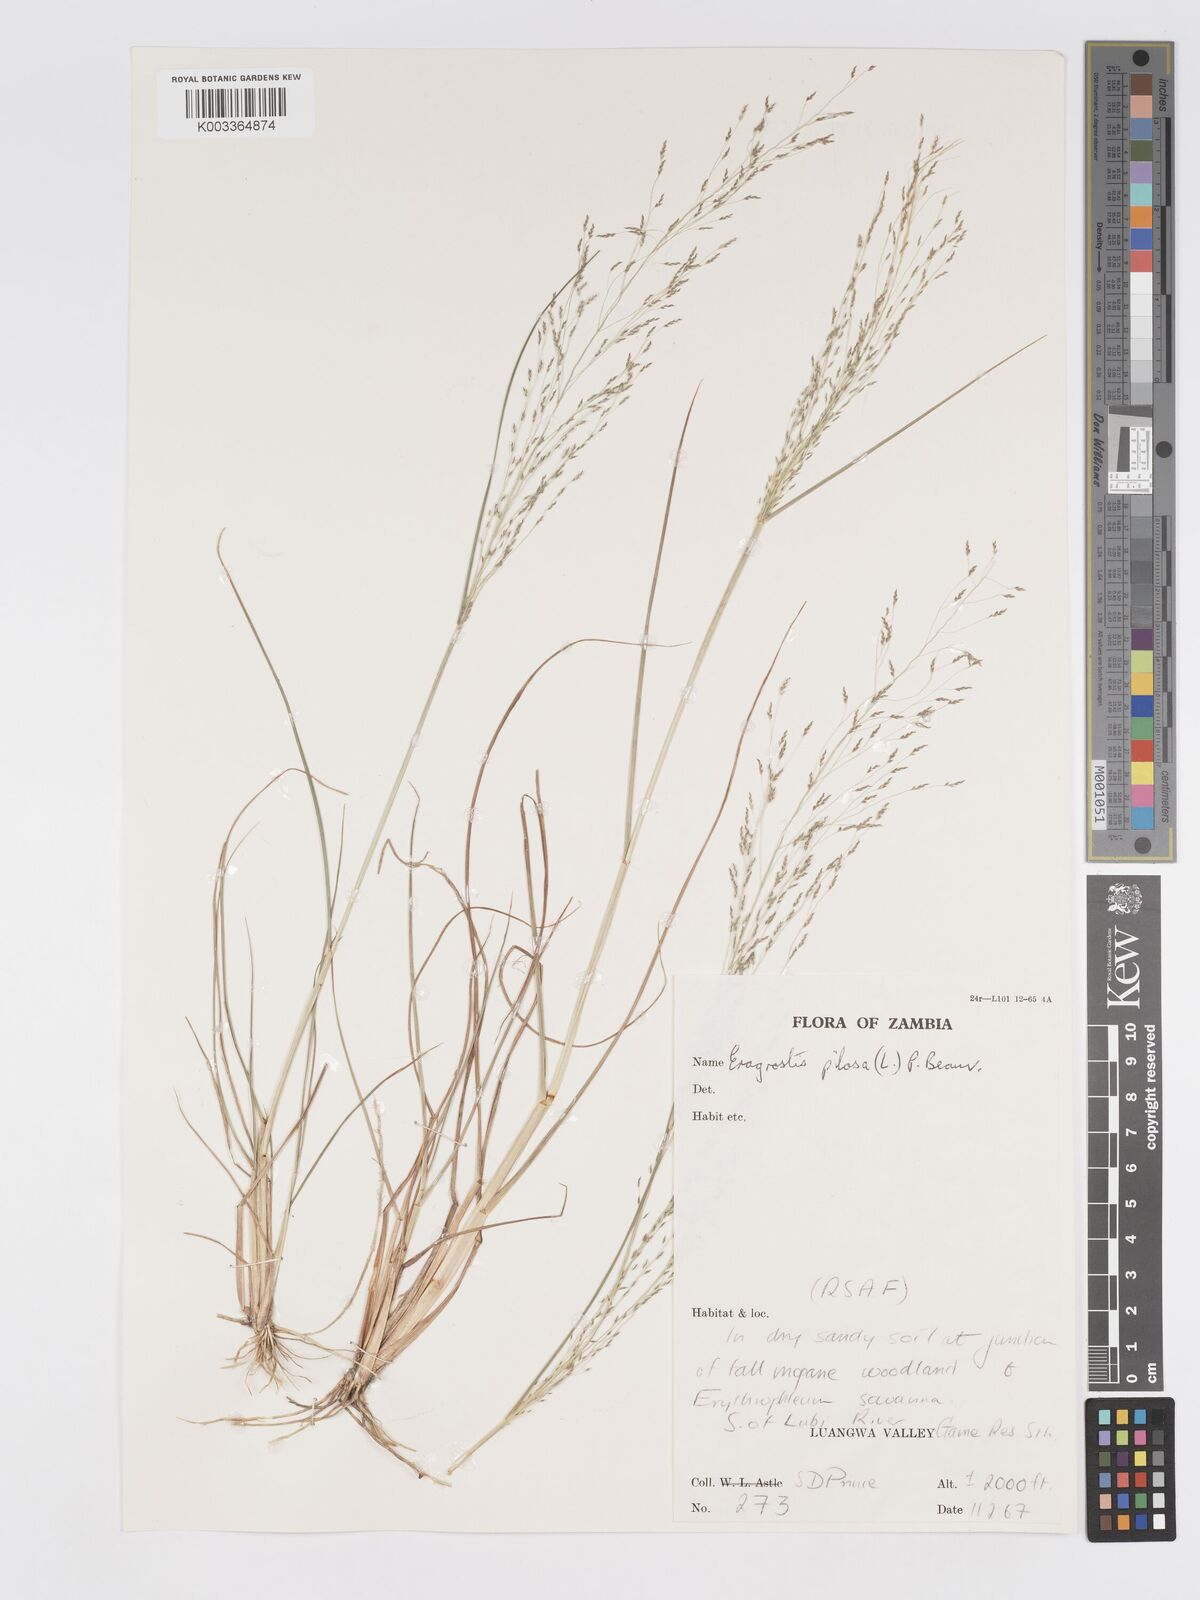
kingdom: Plantae
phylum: Tracheophyta
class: Liliopsida
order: Poales
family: Poaceae
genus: Eragrostis
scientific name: Eragrostis pilosa
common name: Indian lovegrass
